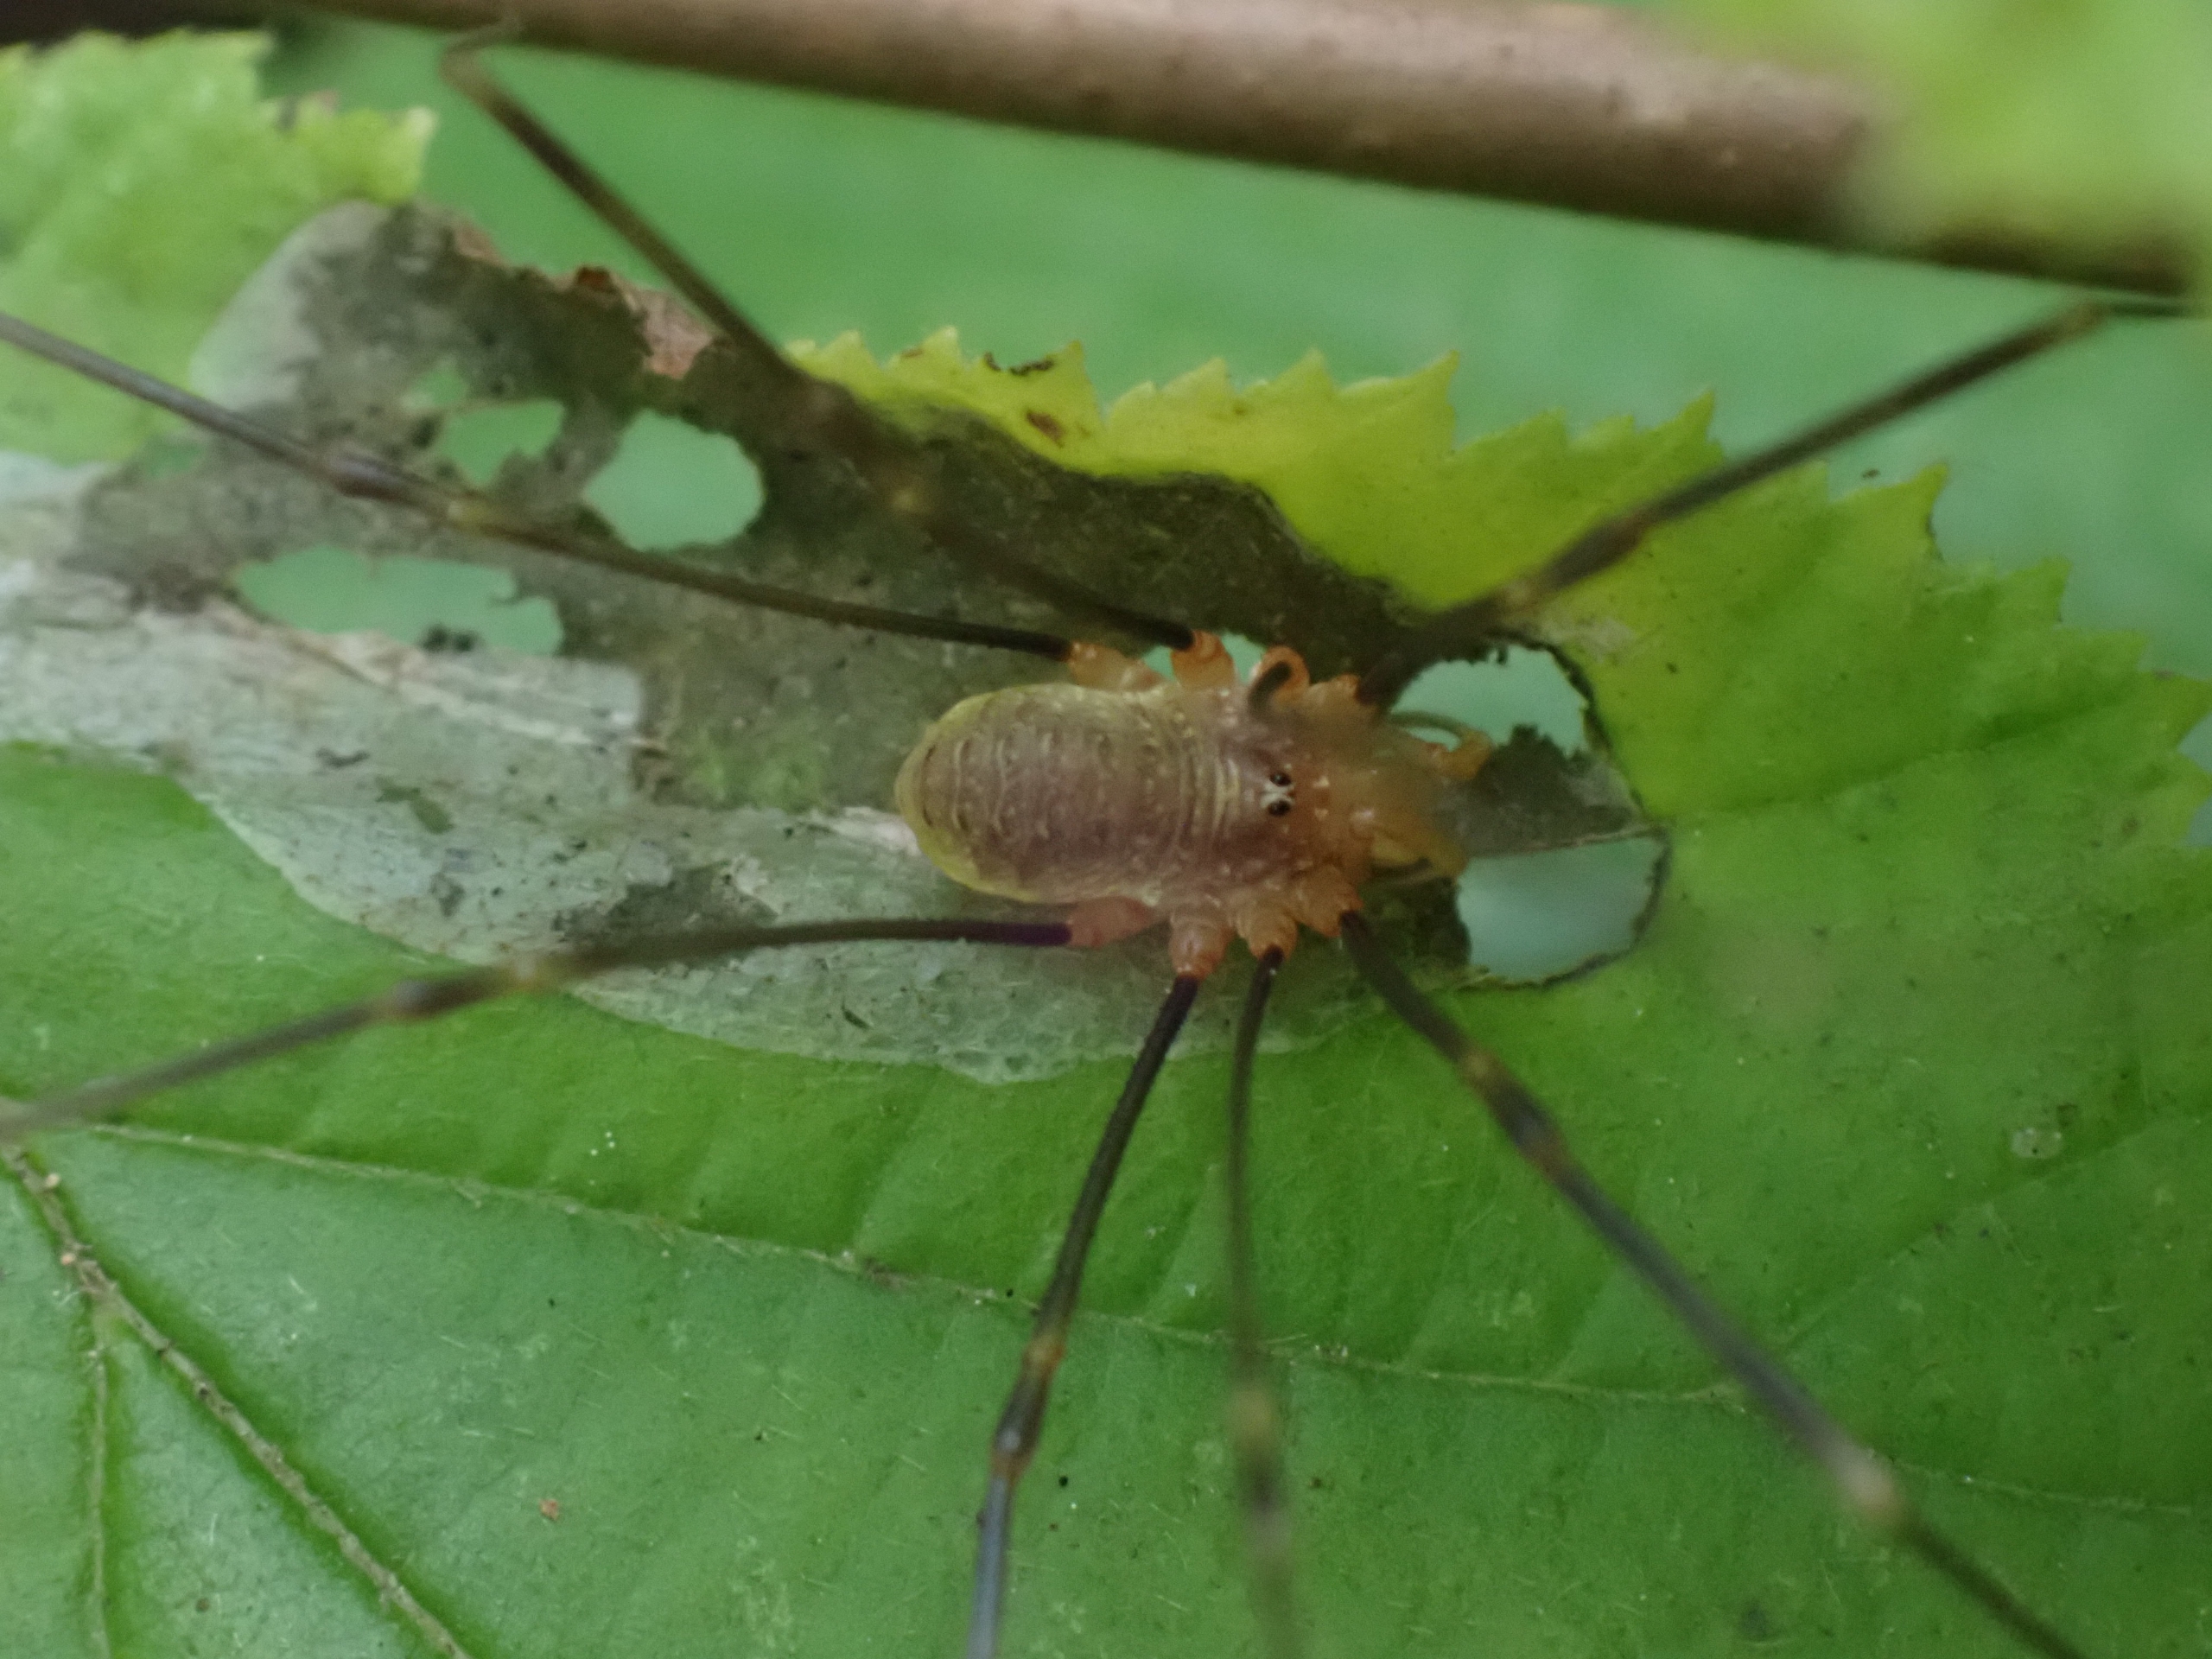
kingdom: Animalia
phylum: Arthropoda
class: Arachnida
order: Opiliones
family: Phalangiidae
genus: Opilio
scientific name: Opilio canestrinii
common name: Orange vægmejer
